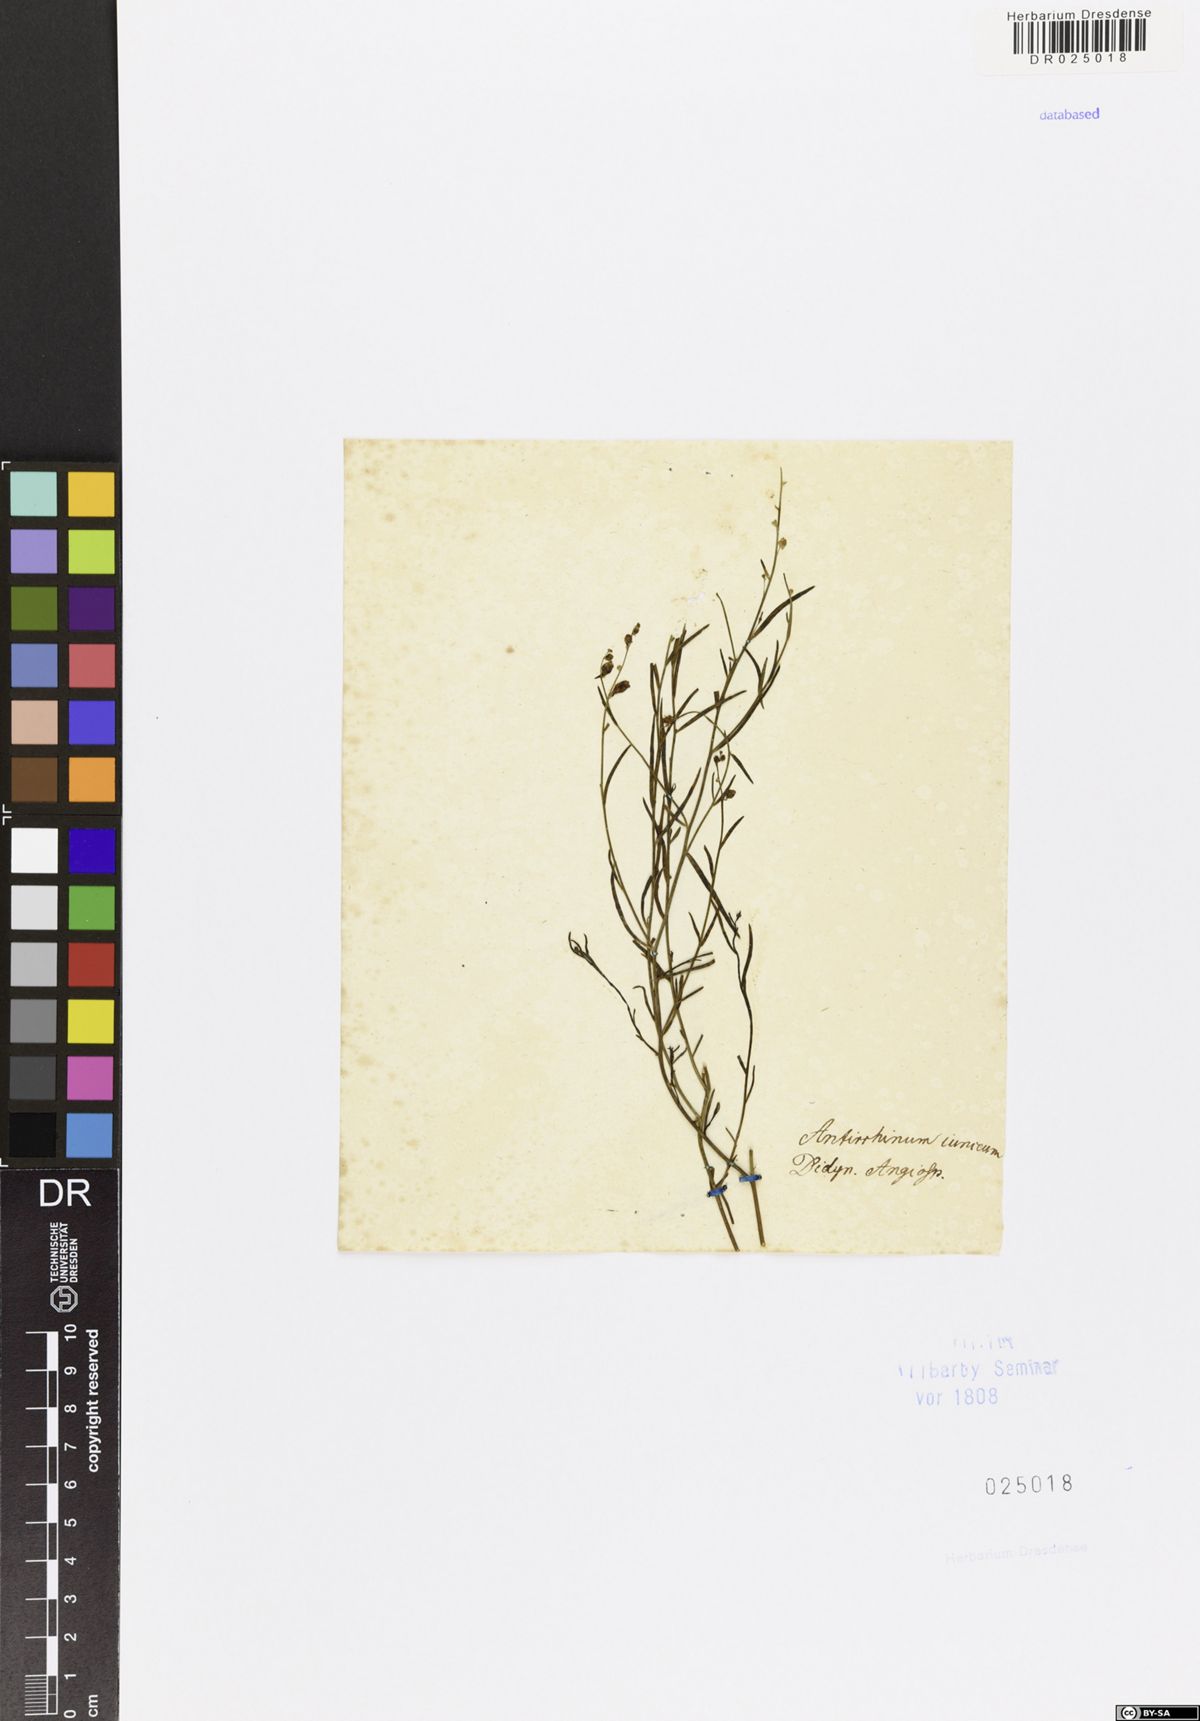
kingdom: Plantae
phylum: Tracheophyta
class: Magnoliopsida
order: Lamiales
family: Plantaginaceae
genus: Linaria
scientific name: Linaria odora
